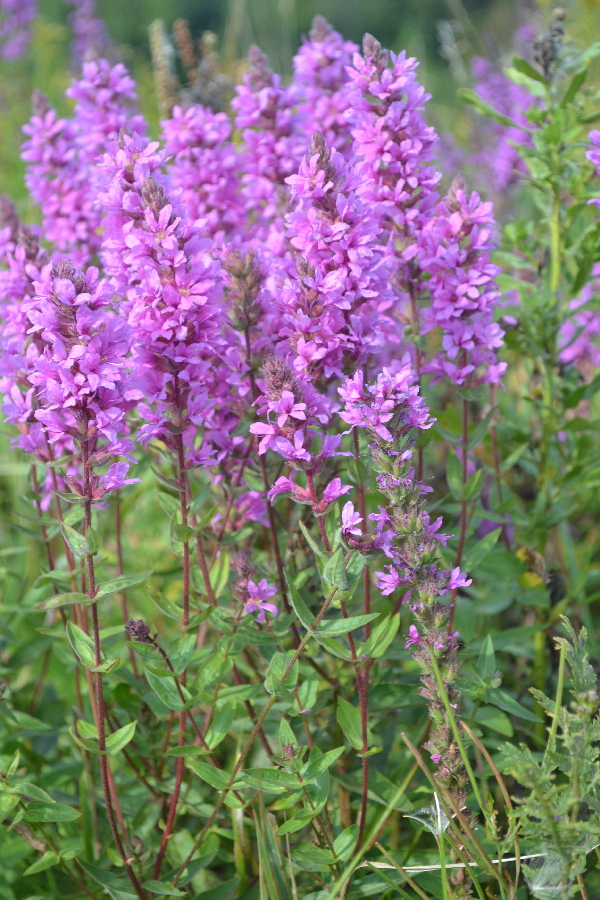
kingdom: Plantae
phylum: Tracheophyta
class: Magnoliopsida
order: Myrtales
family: Lythraceae
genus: Lythrum
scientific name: Lythrum salicaria
